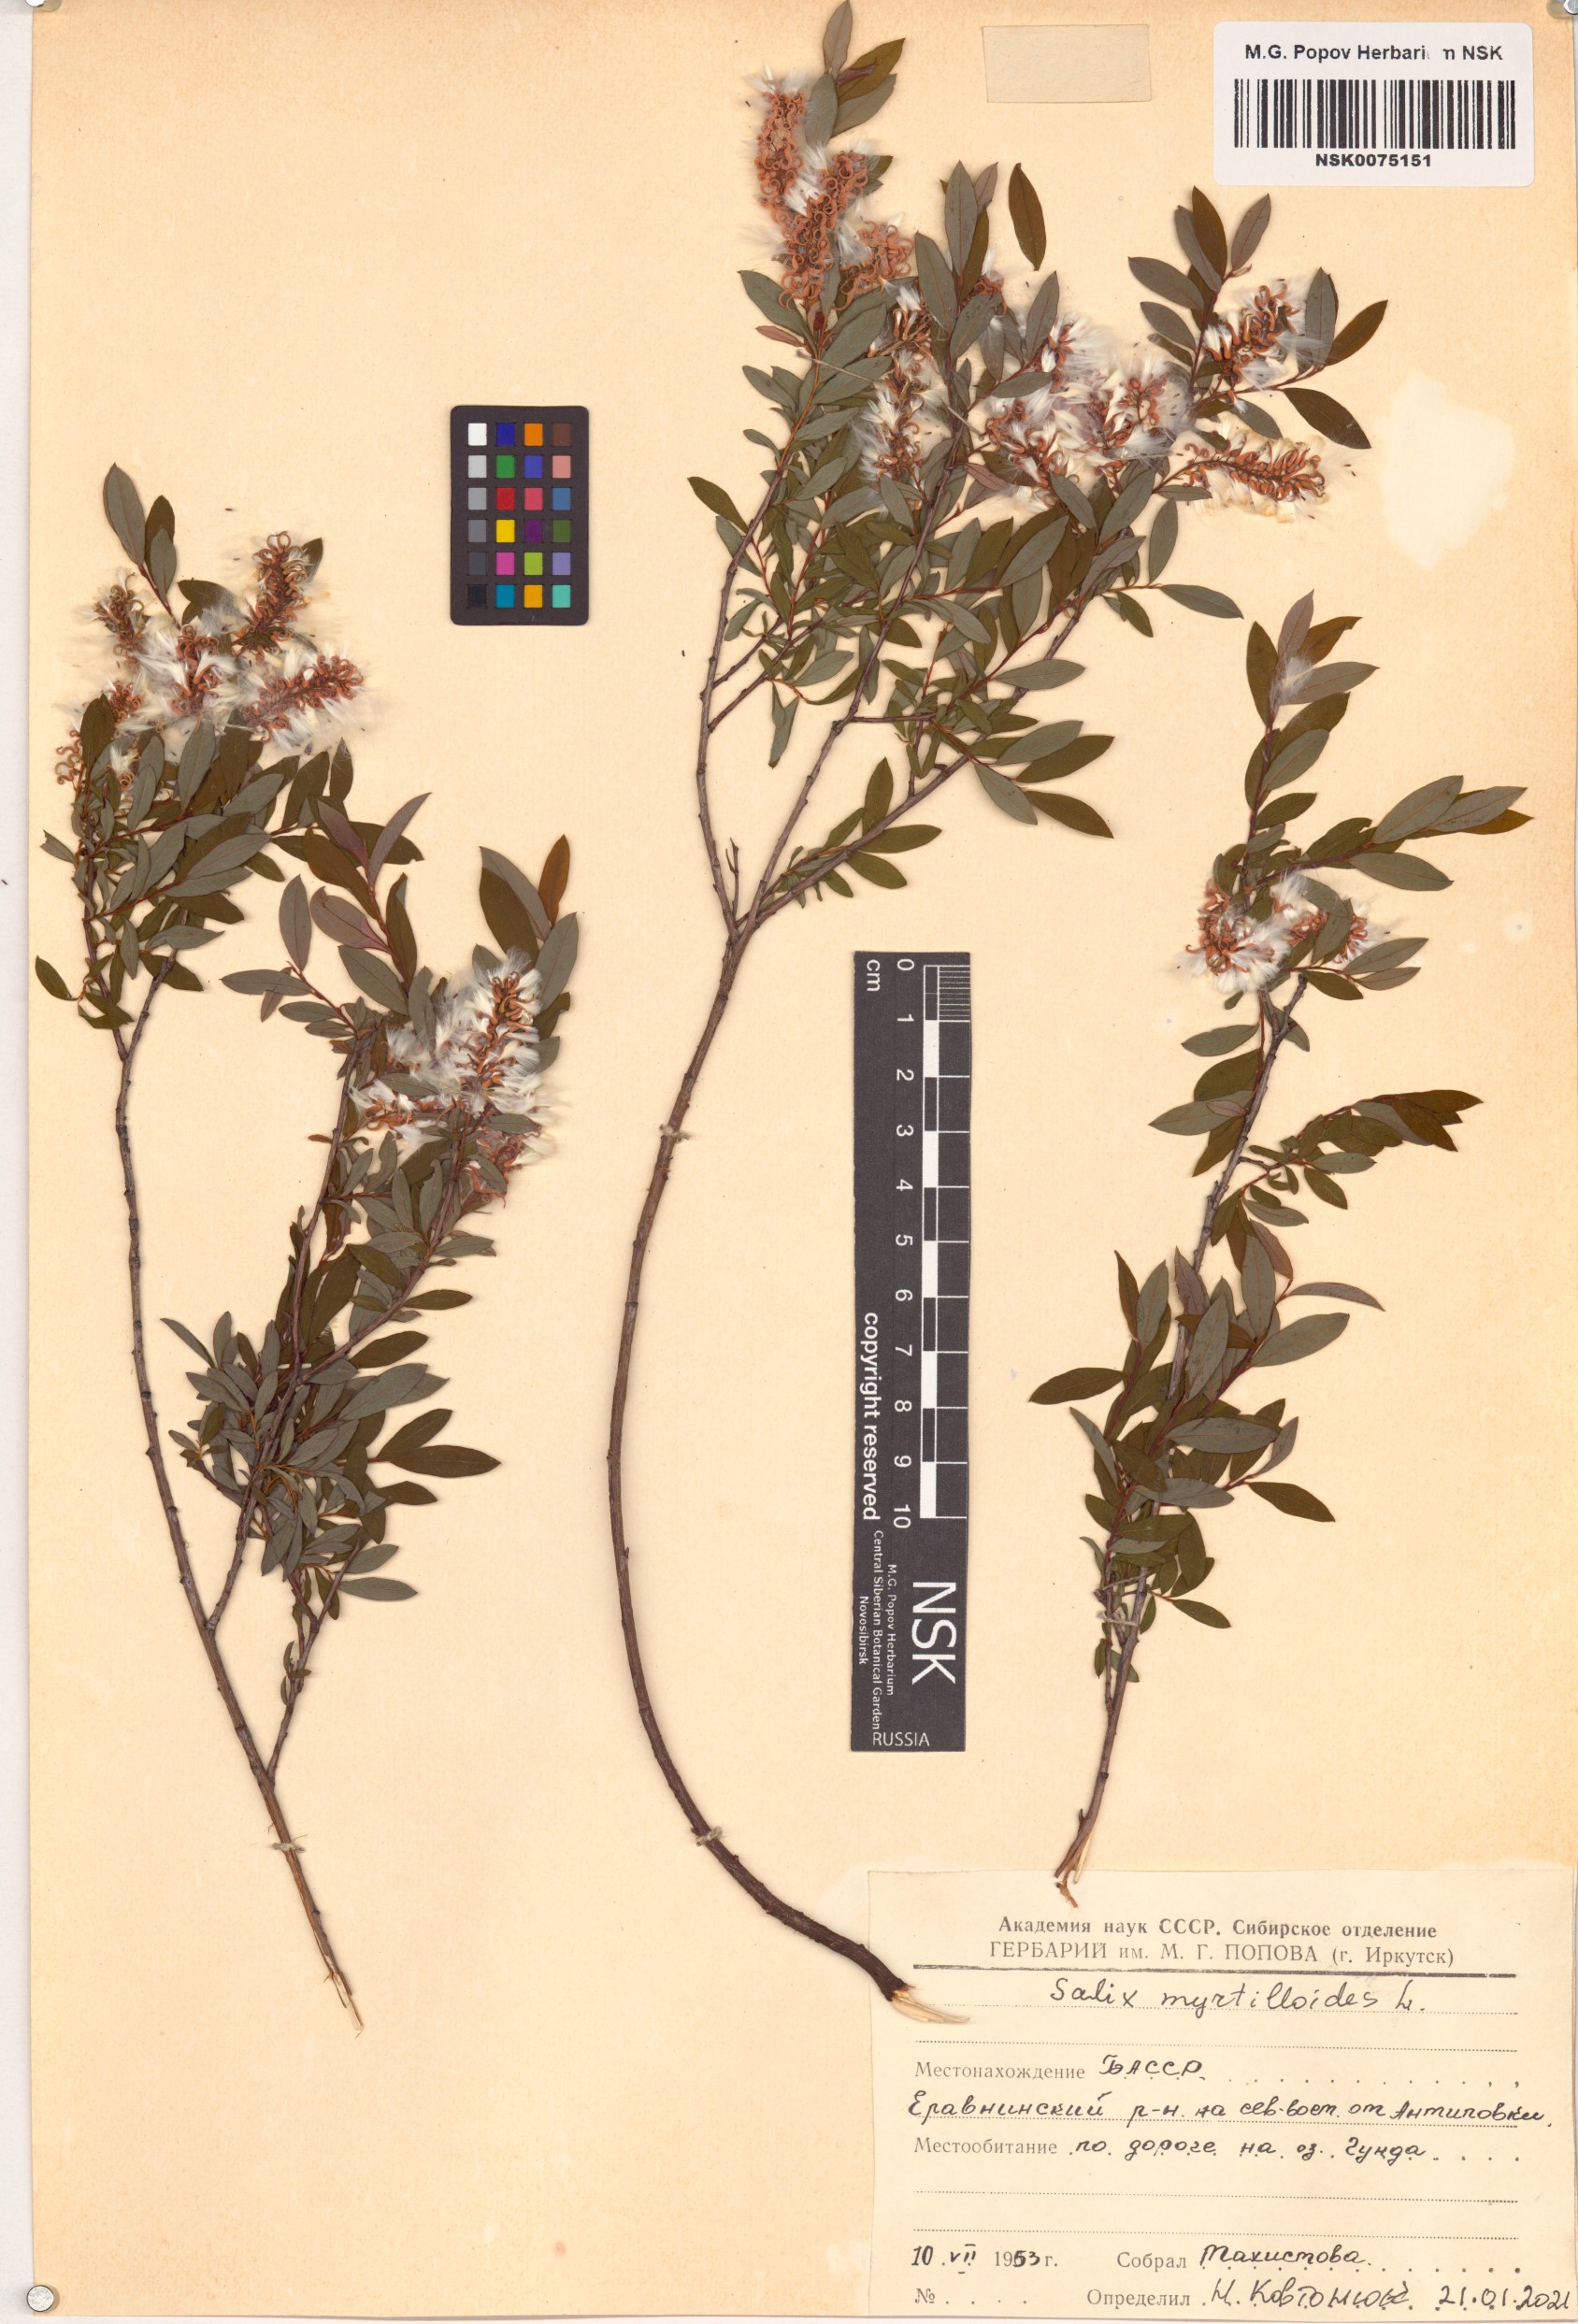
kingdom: Plantae
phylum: Tracheophyta
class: Magnoliopsida
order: Malpighiales
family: Salicaceae
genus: Salix
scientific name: Salix myrtilloides
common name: Myrtle-leaved willow
